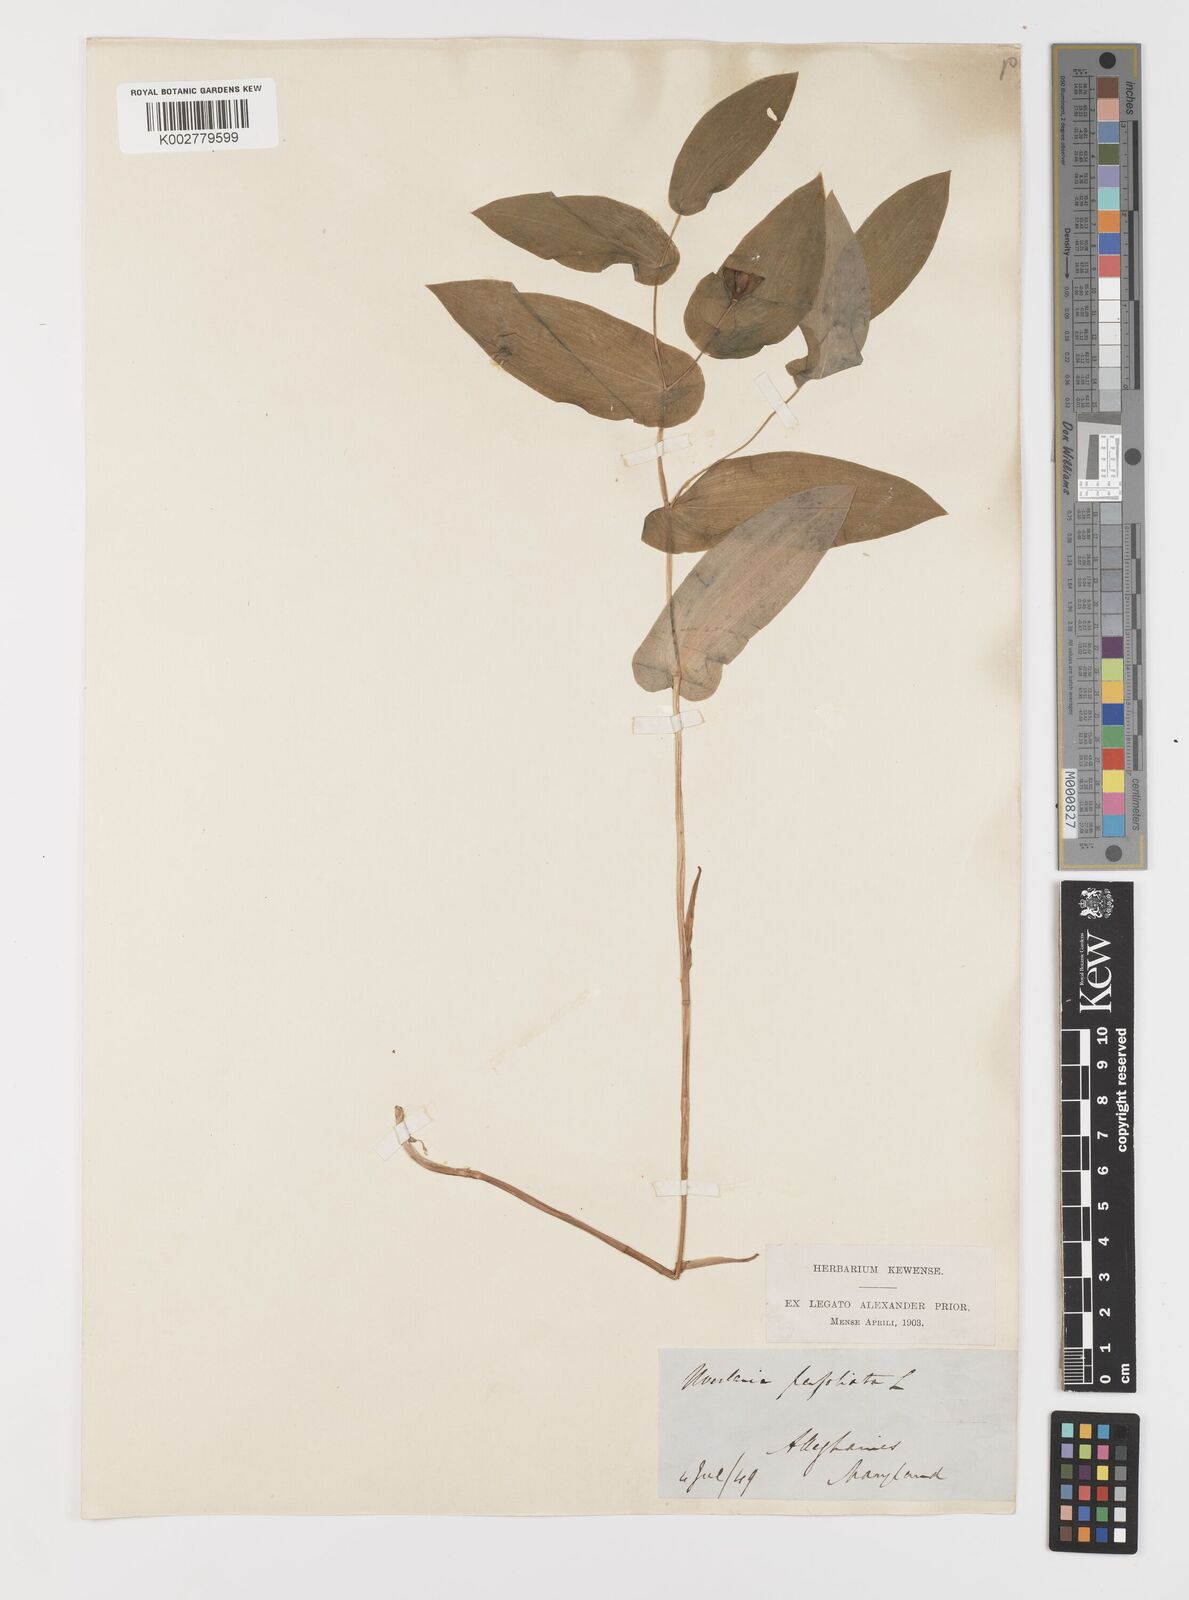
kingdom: Plantae
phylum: Tracheophyta
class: Liliopsida
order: Liliales
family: Colchicaceae
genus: Uvularia
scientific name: Uvularia perfoliata
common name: Perfoliate bellwort
